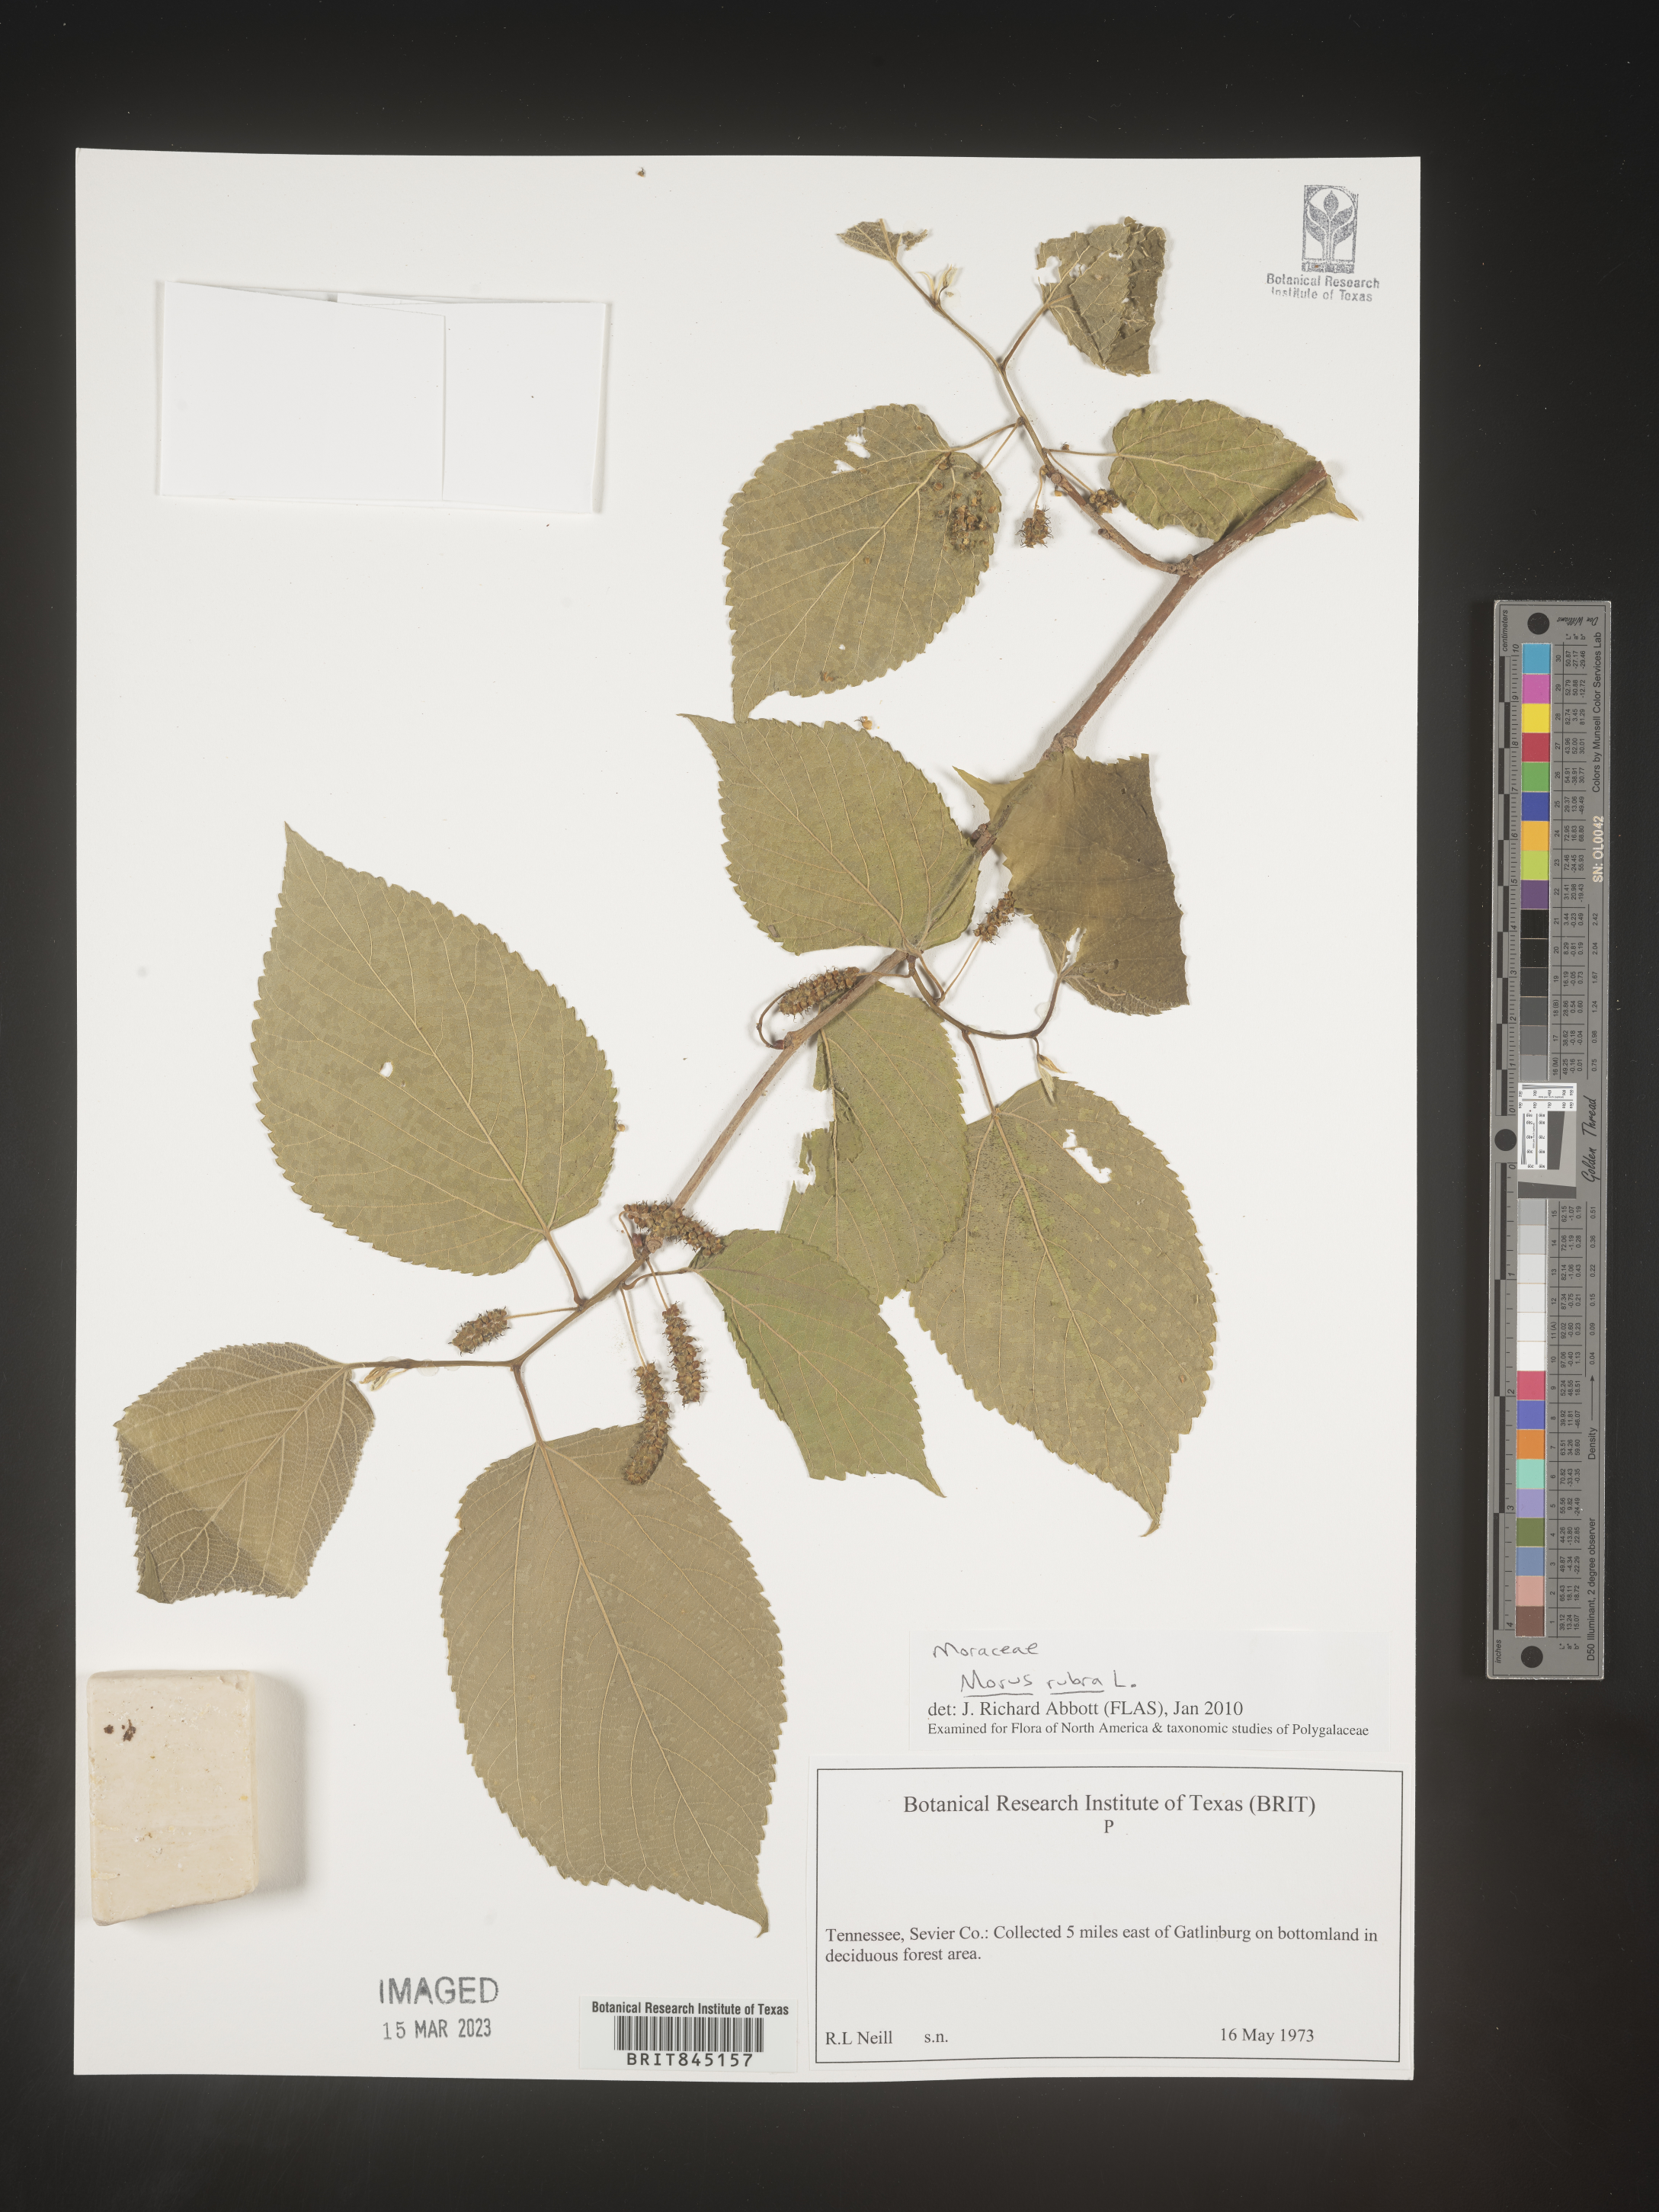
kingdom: Plantae
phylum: Tracheophyta
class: Magnoliopsida
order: Rosales
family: Moraceae
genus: Morus
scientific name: Morus rubra
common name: Red mulberry
